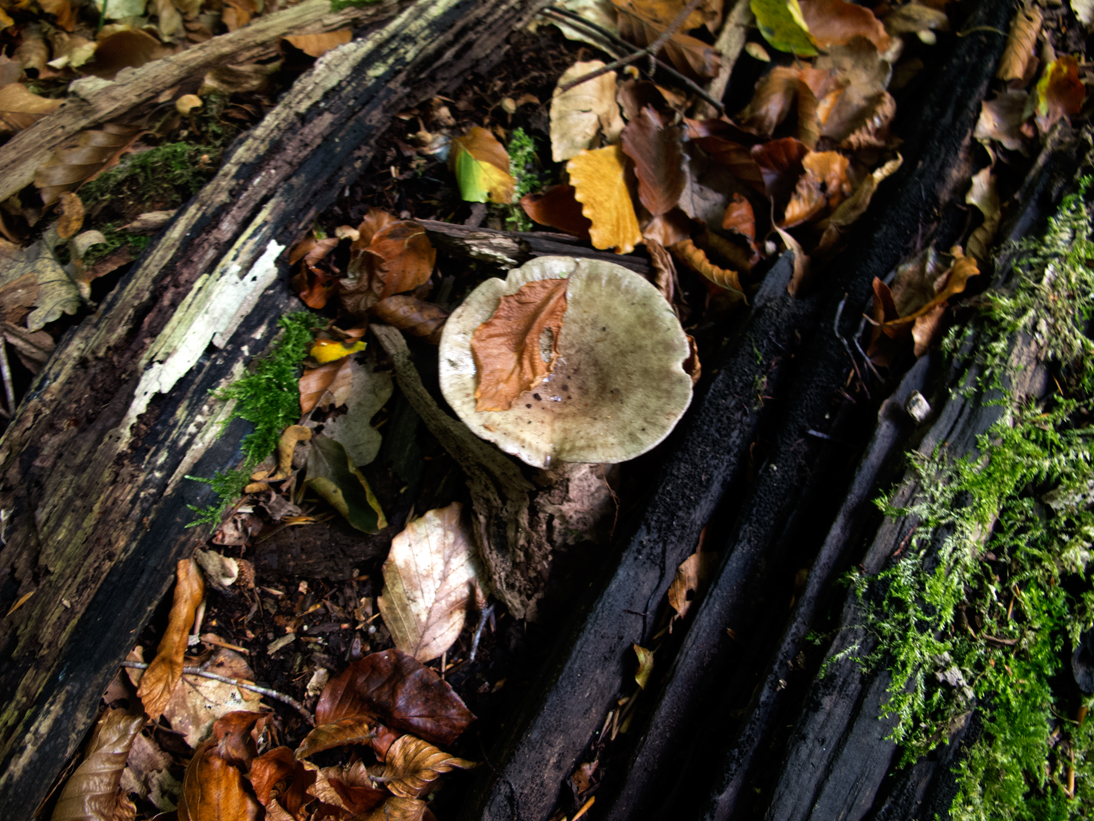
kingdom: Fungi
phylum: Basidiomycota
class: Agaricomycetes
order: Russulales
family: Russulaceae
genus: Lactarius
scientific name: Lactarius blennius
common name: dråbeplettet mælkehat
